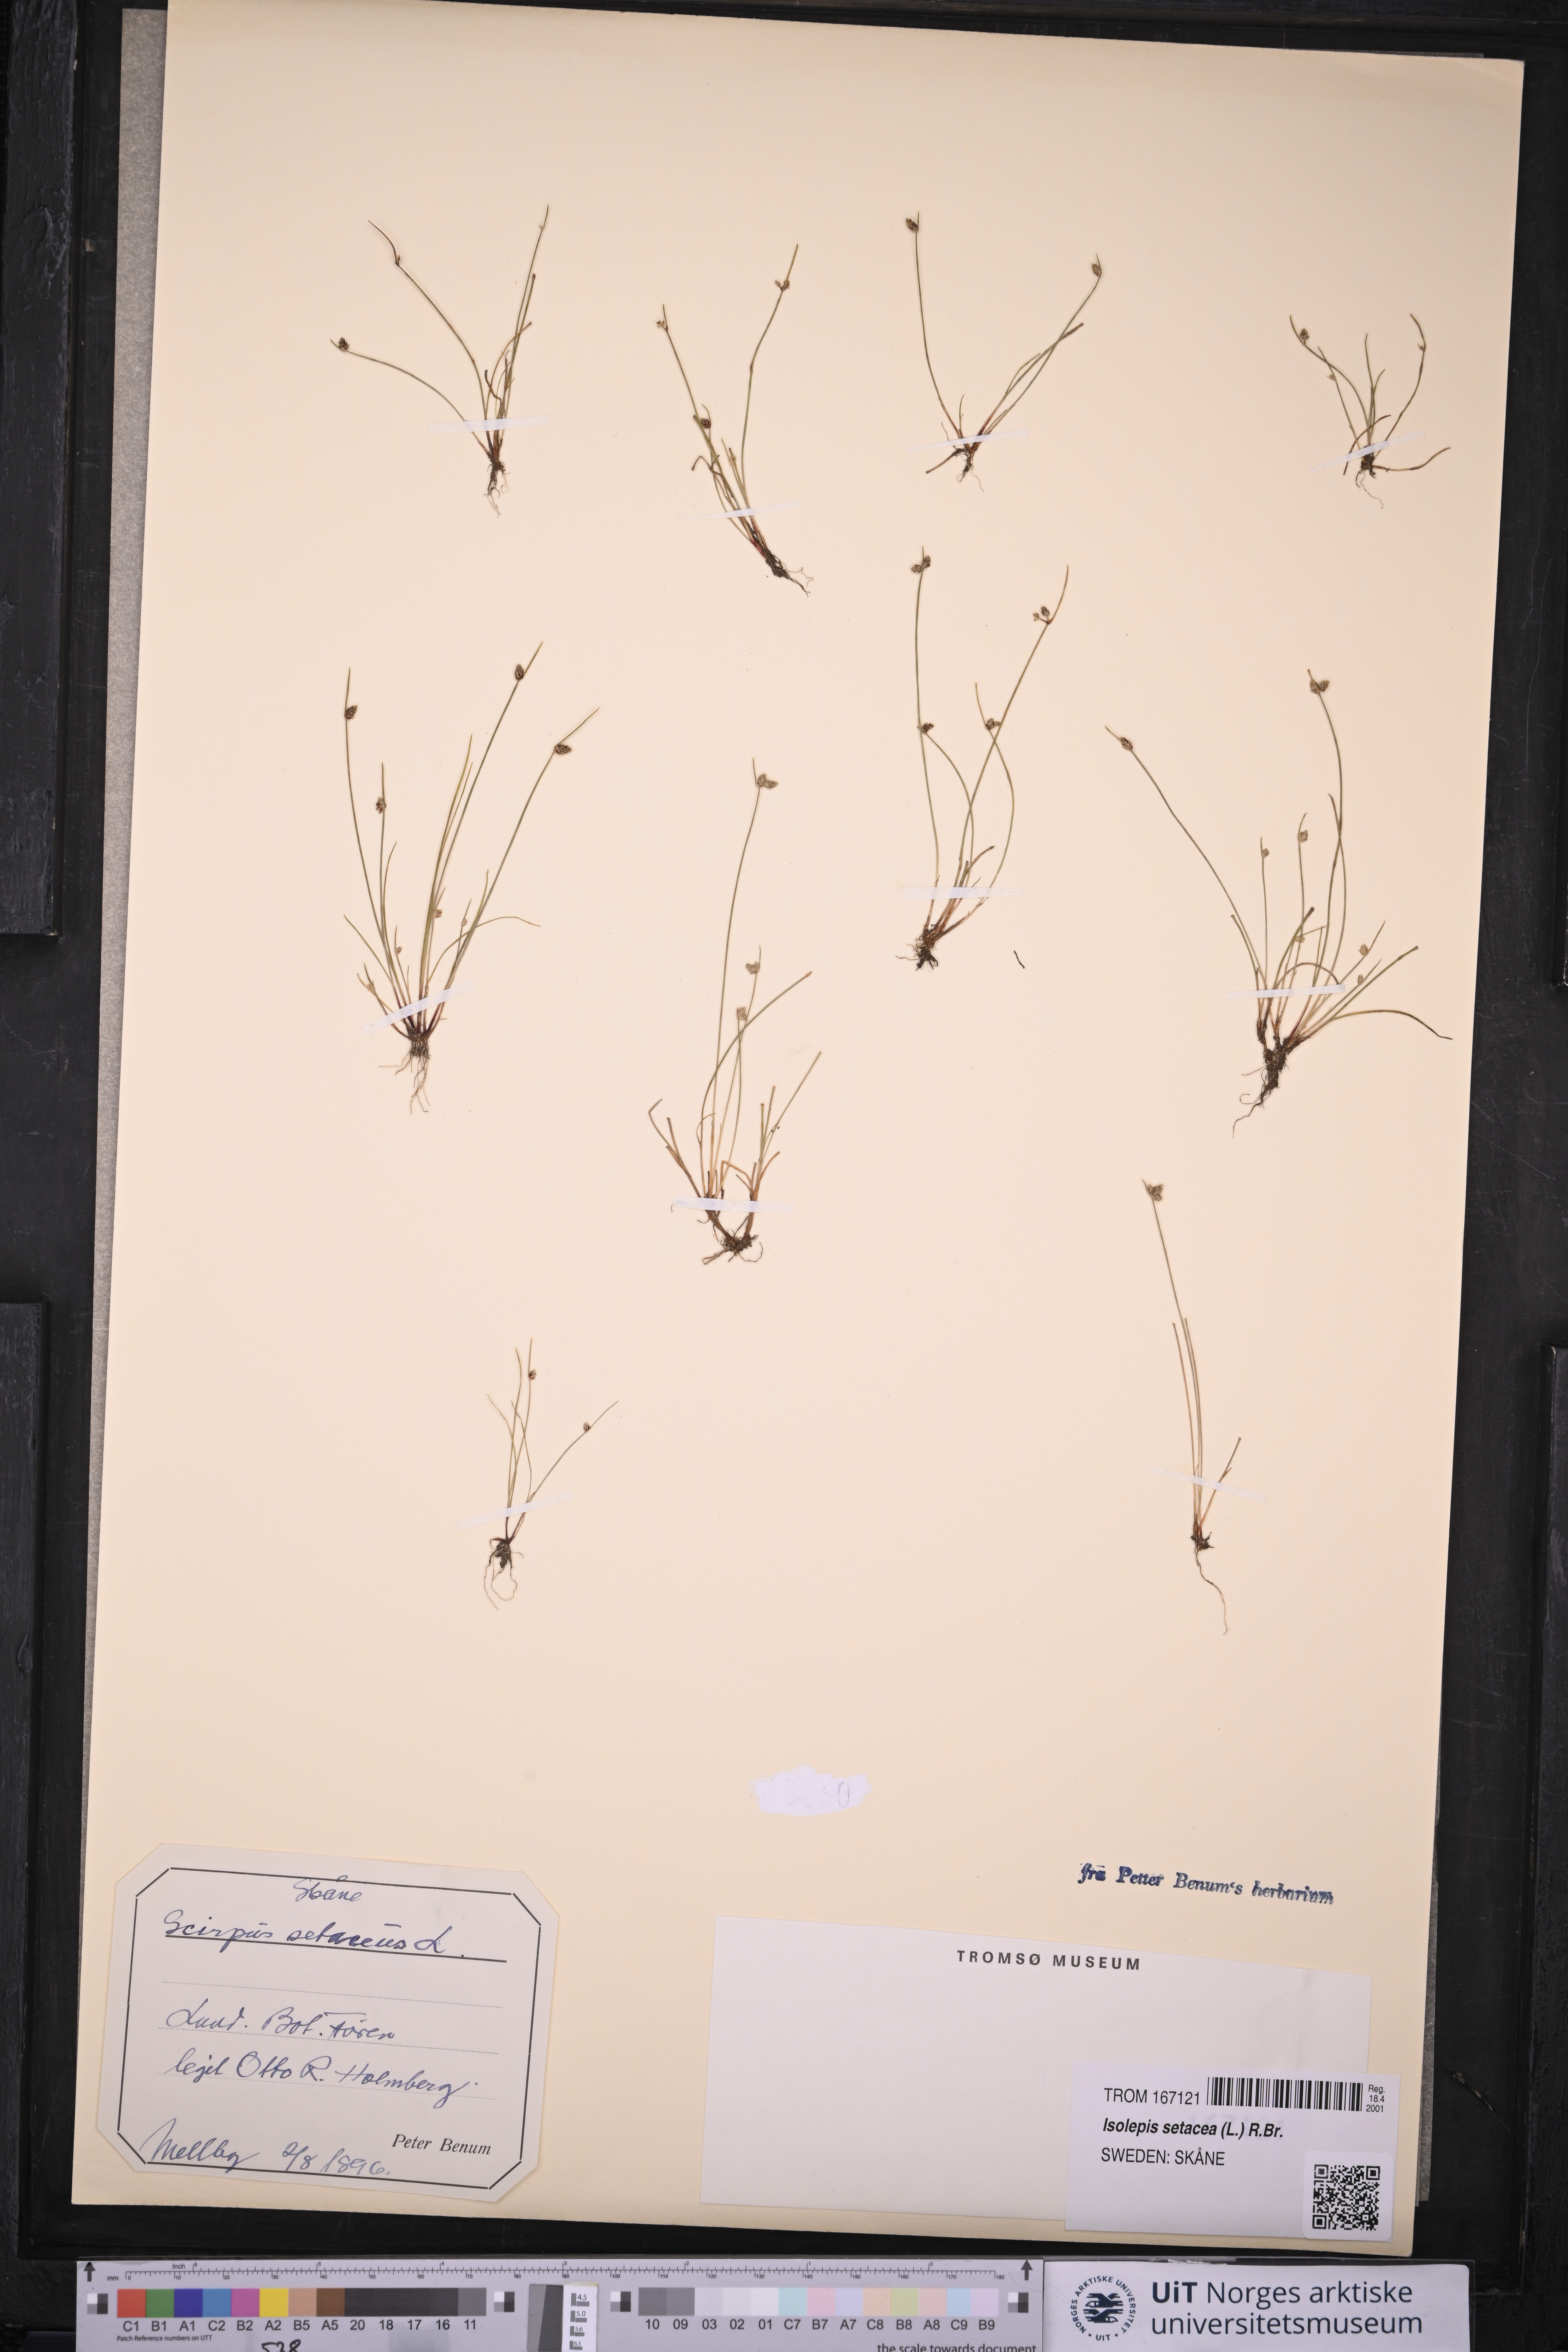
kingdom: Plantae
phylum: Tracheophyta
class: Liliopsida
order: Poales
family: Cyperaceae
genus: Isolepis
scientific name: Isolepis setacea
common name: Bristle club-rush
